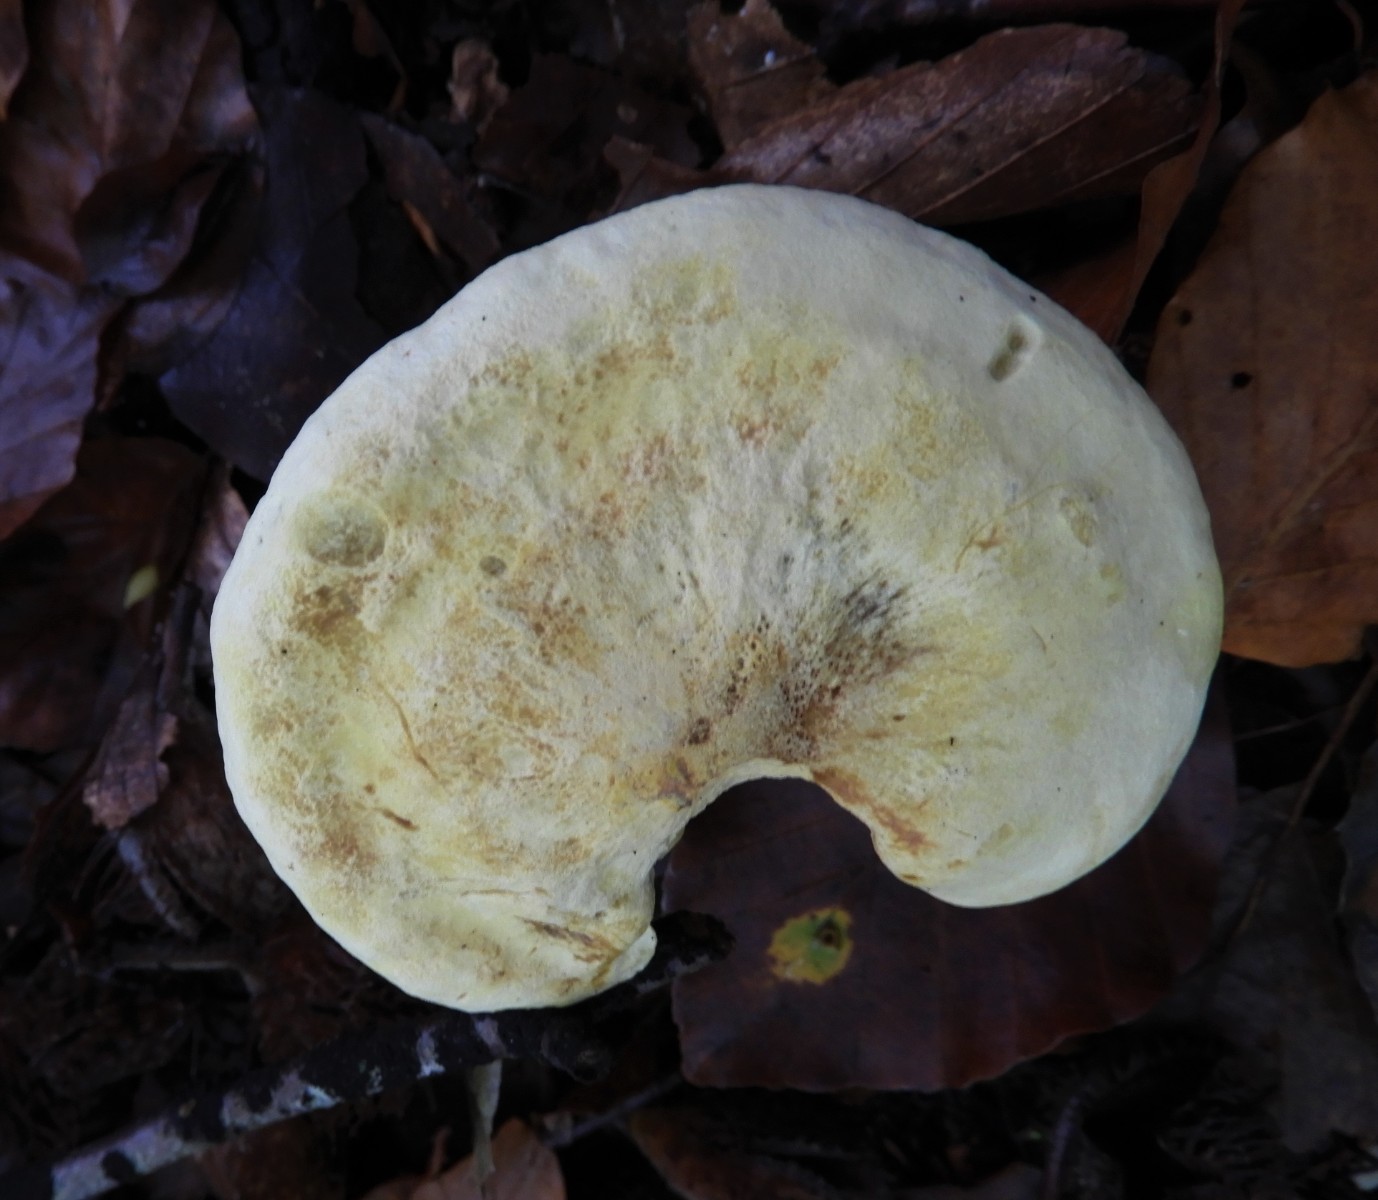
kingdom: Fungi
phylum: Basidiomycota
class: Agaricomycetes
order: Agaricales
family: Tricholomataceae
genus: Tricholoma
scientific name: Tricholoma sulphureum
